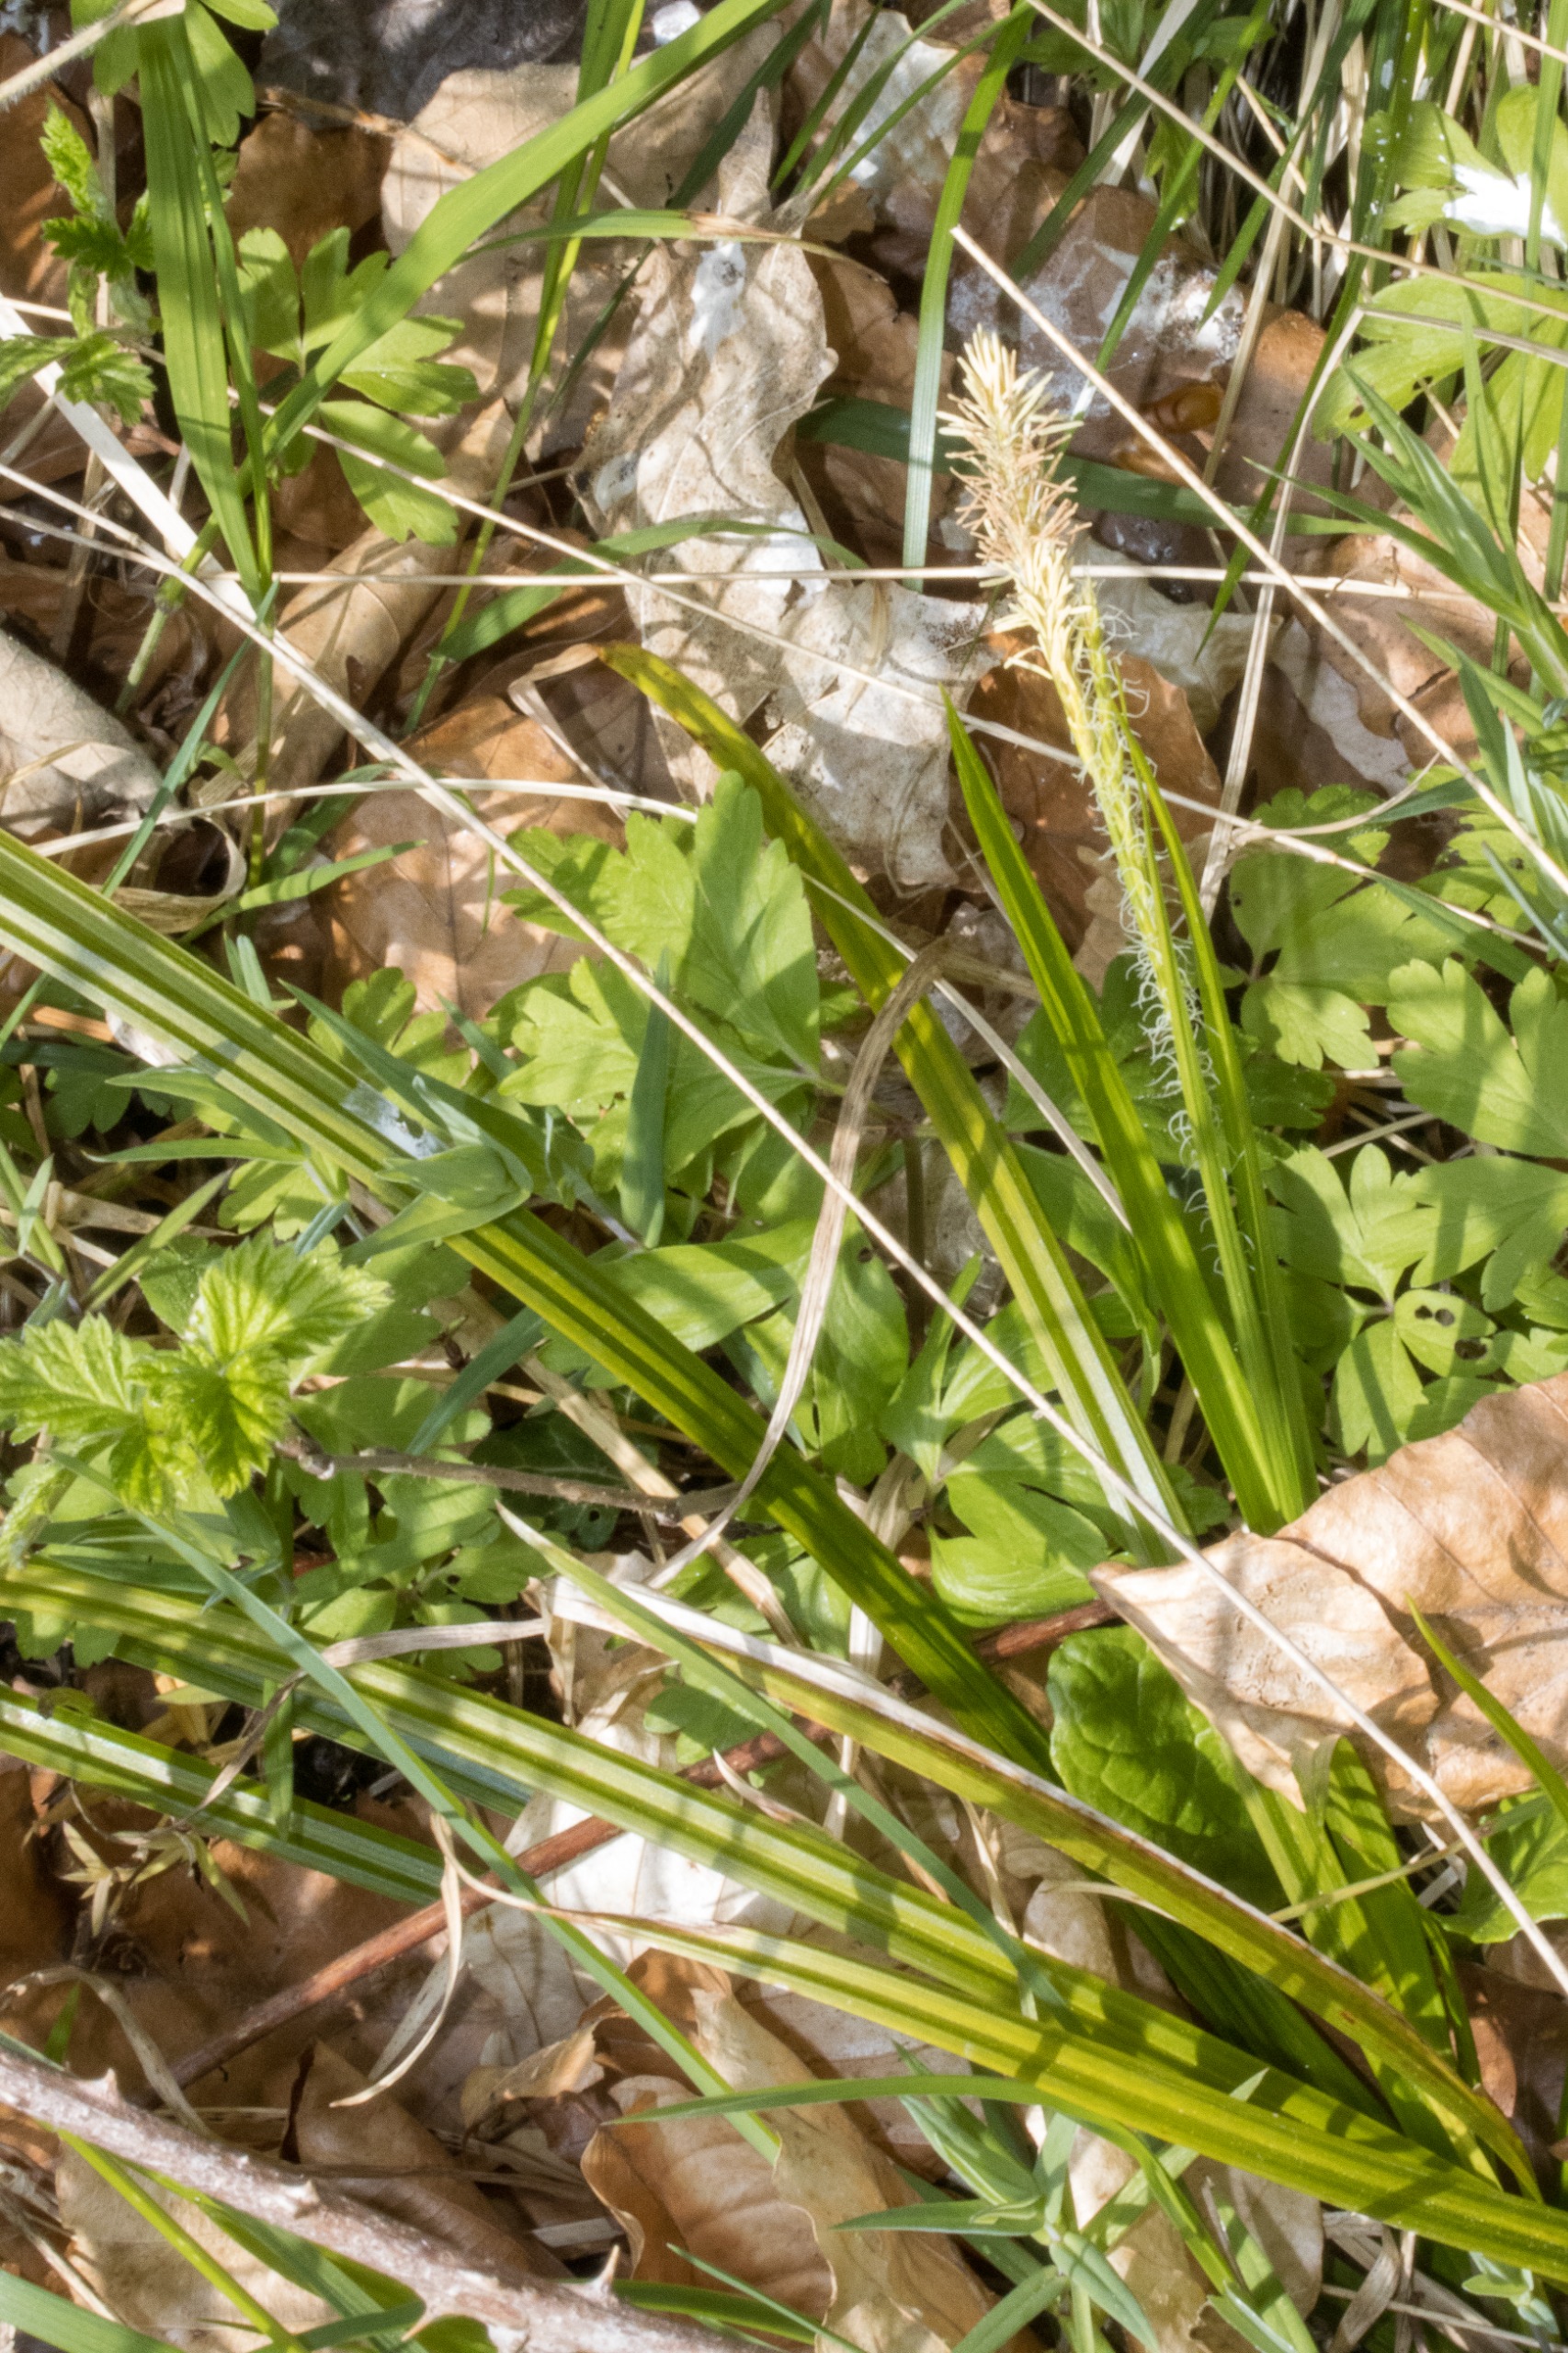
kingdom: Plantae
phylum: Tracheophyta
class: Liliopsida
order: Poales
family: Cyperaceae
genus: Carex
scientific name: Carex sylvatica
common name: Skov-star
